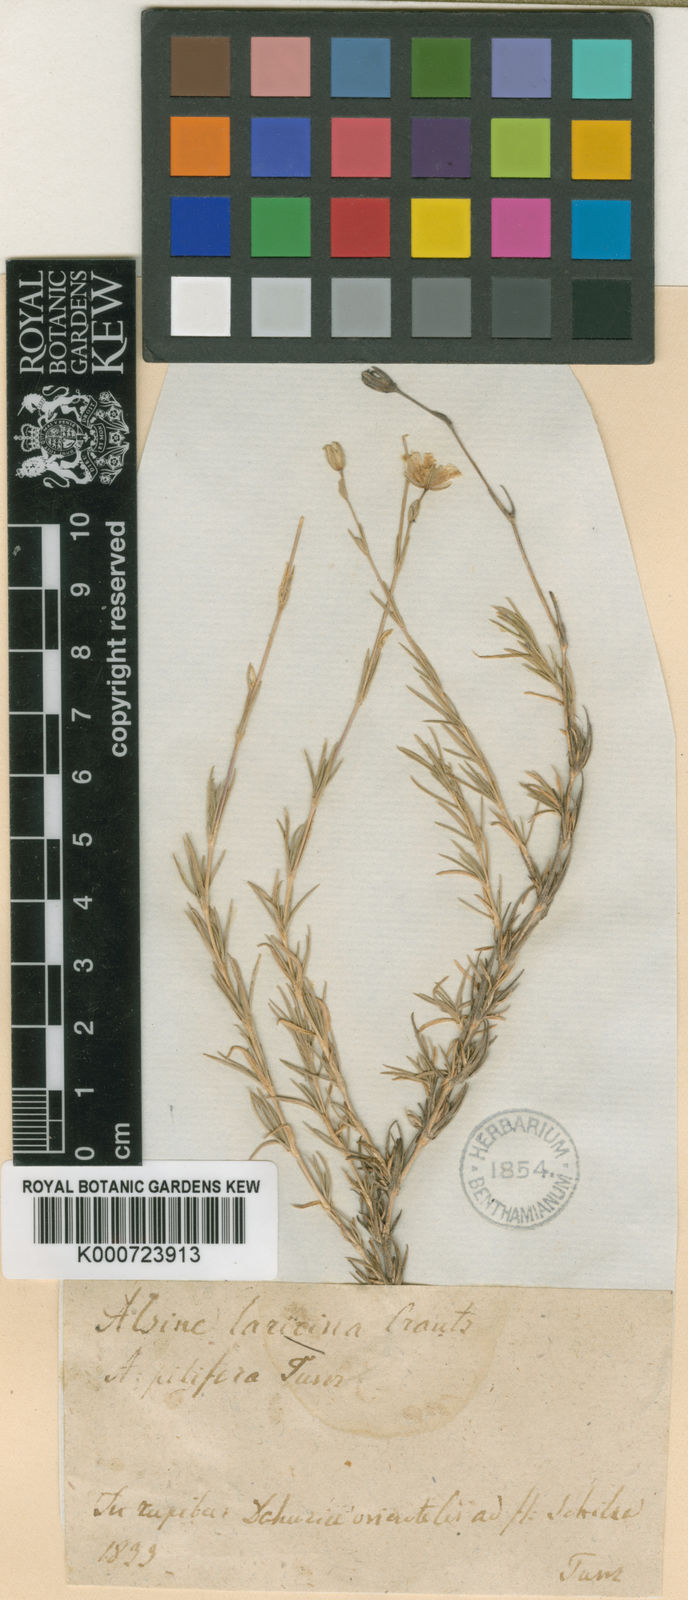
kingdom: Plantae
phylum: Tracheophyta
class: Magnoliopsida
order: Caryophyllales
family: Caryophyllaceae
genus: Pseudocherleria
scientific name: Pseudocherleria laricina
